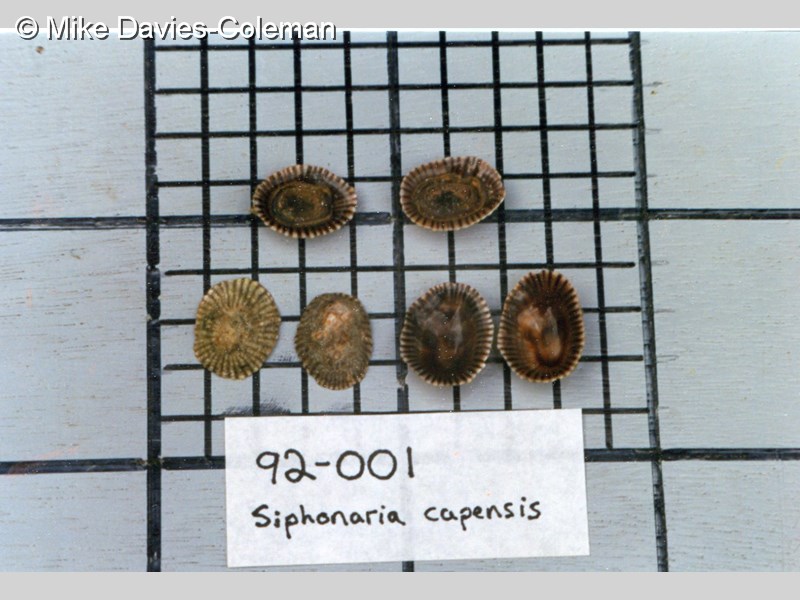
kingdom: Animalia
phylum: Mollusca
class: Gastropoda
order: Siphonariida
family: Siphonariidae
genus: Siphonaria
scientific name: Siphonaria capensis
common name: Cape false limpet
